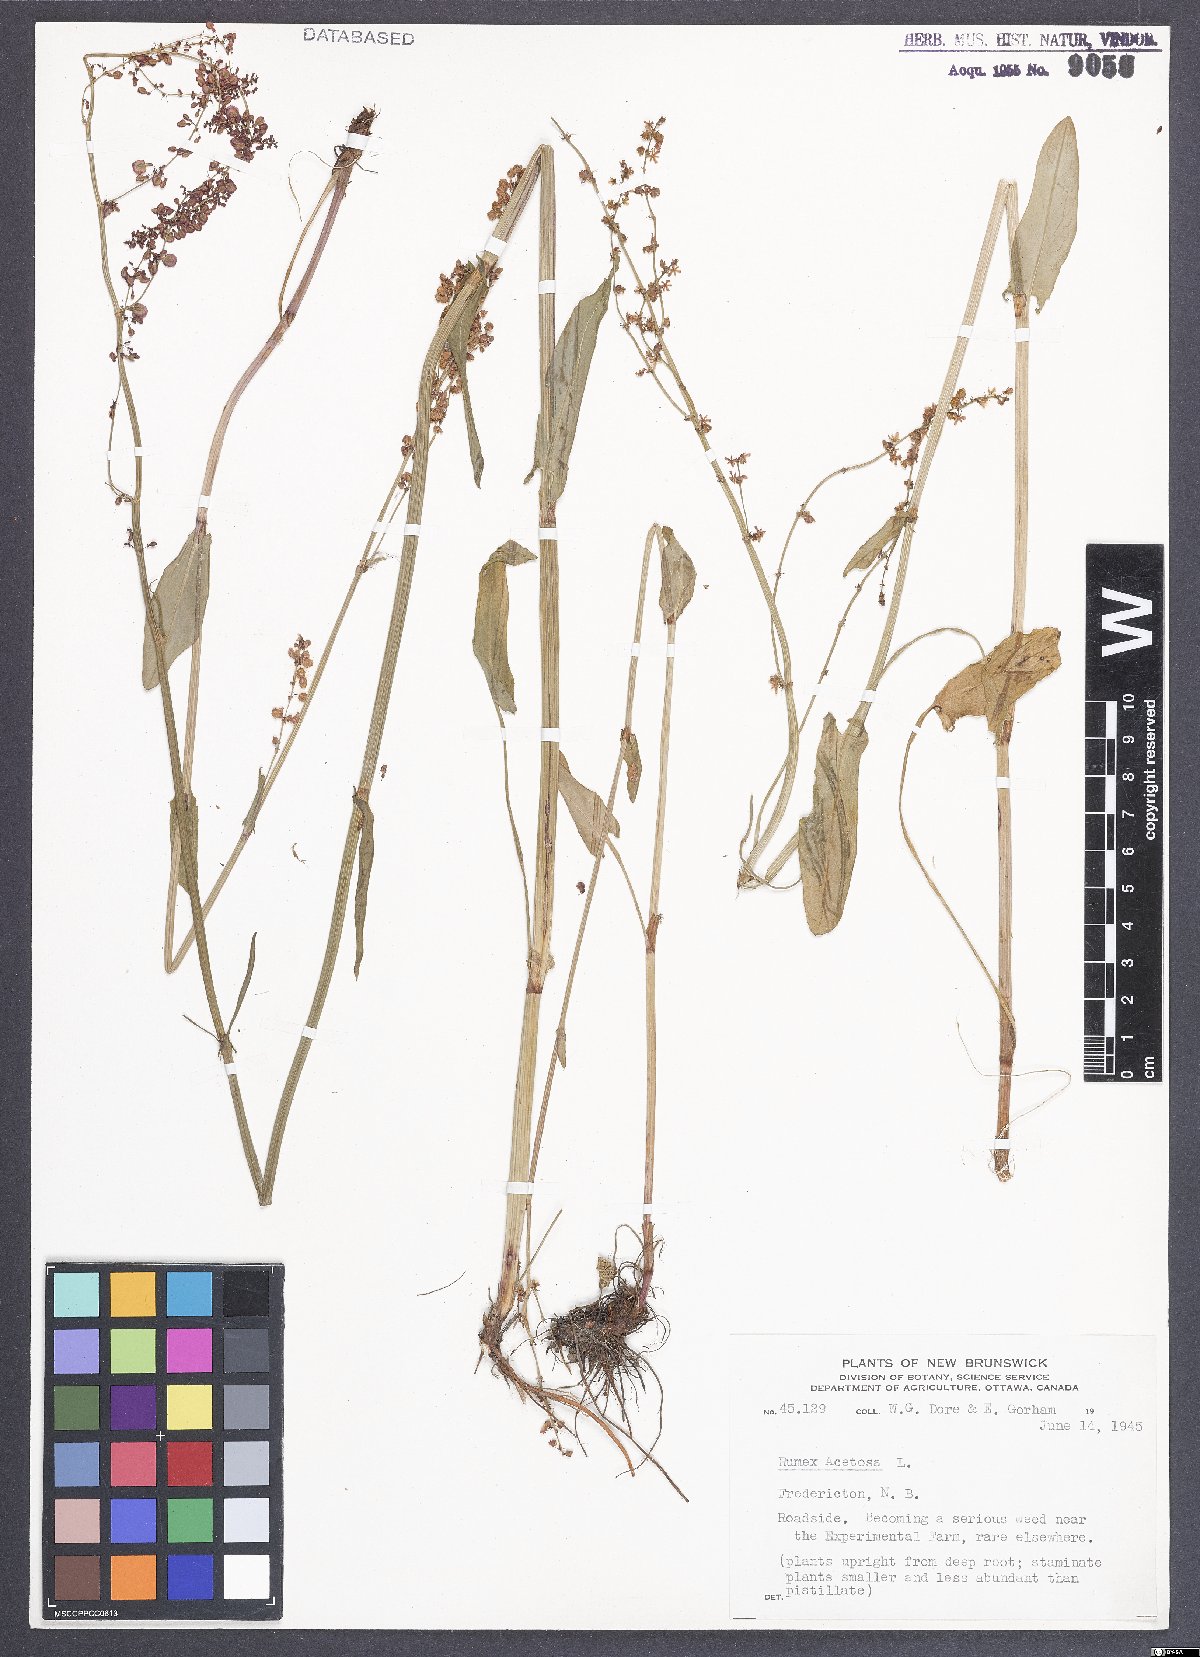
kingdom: Plantae
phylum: Tracheophyta
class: Magnoliopsida
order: Caryophyllales
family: Polygonaceae
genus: Rumex
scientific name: Rumex acetosa
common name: Garden sorrel
